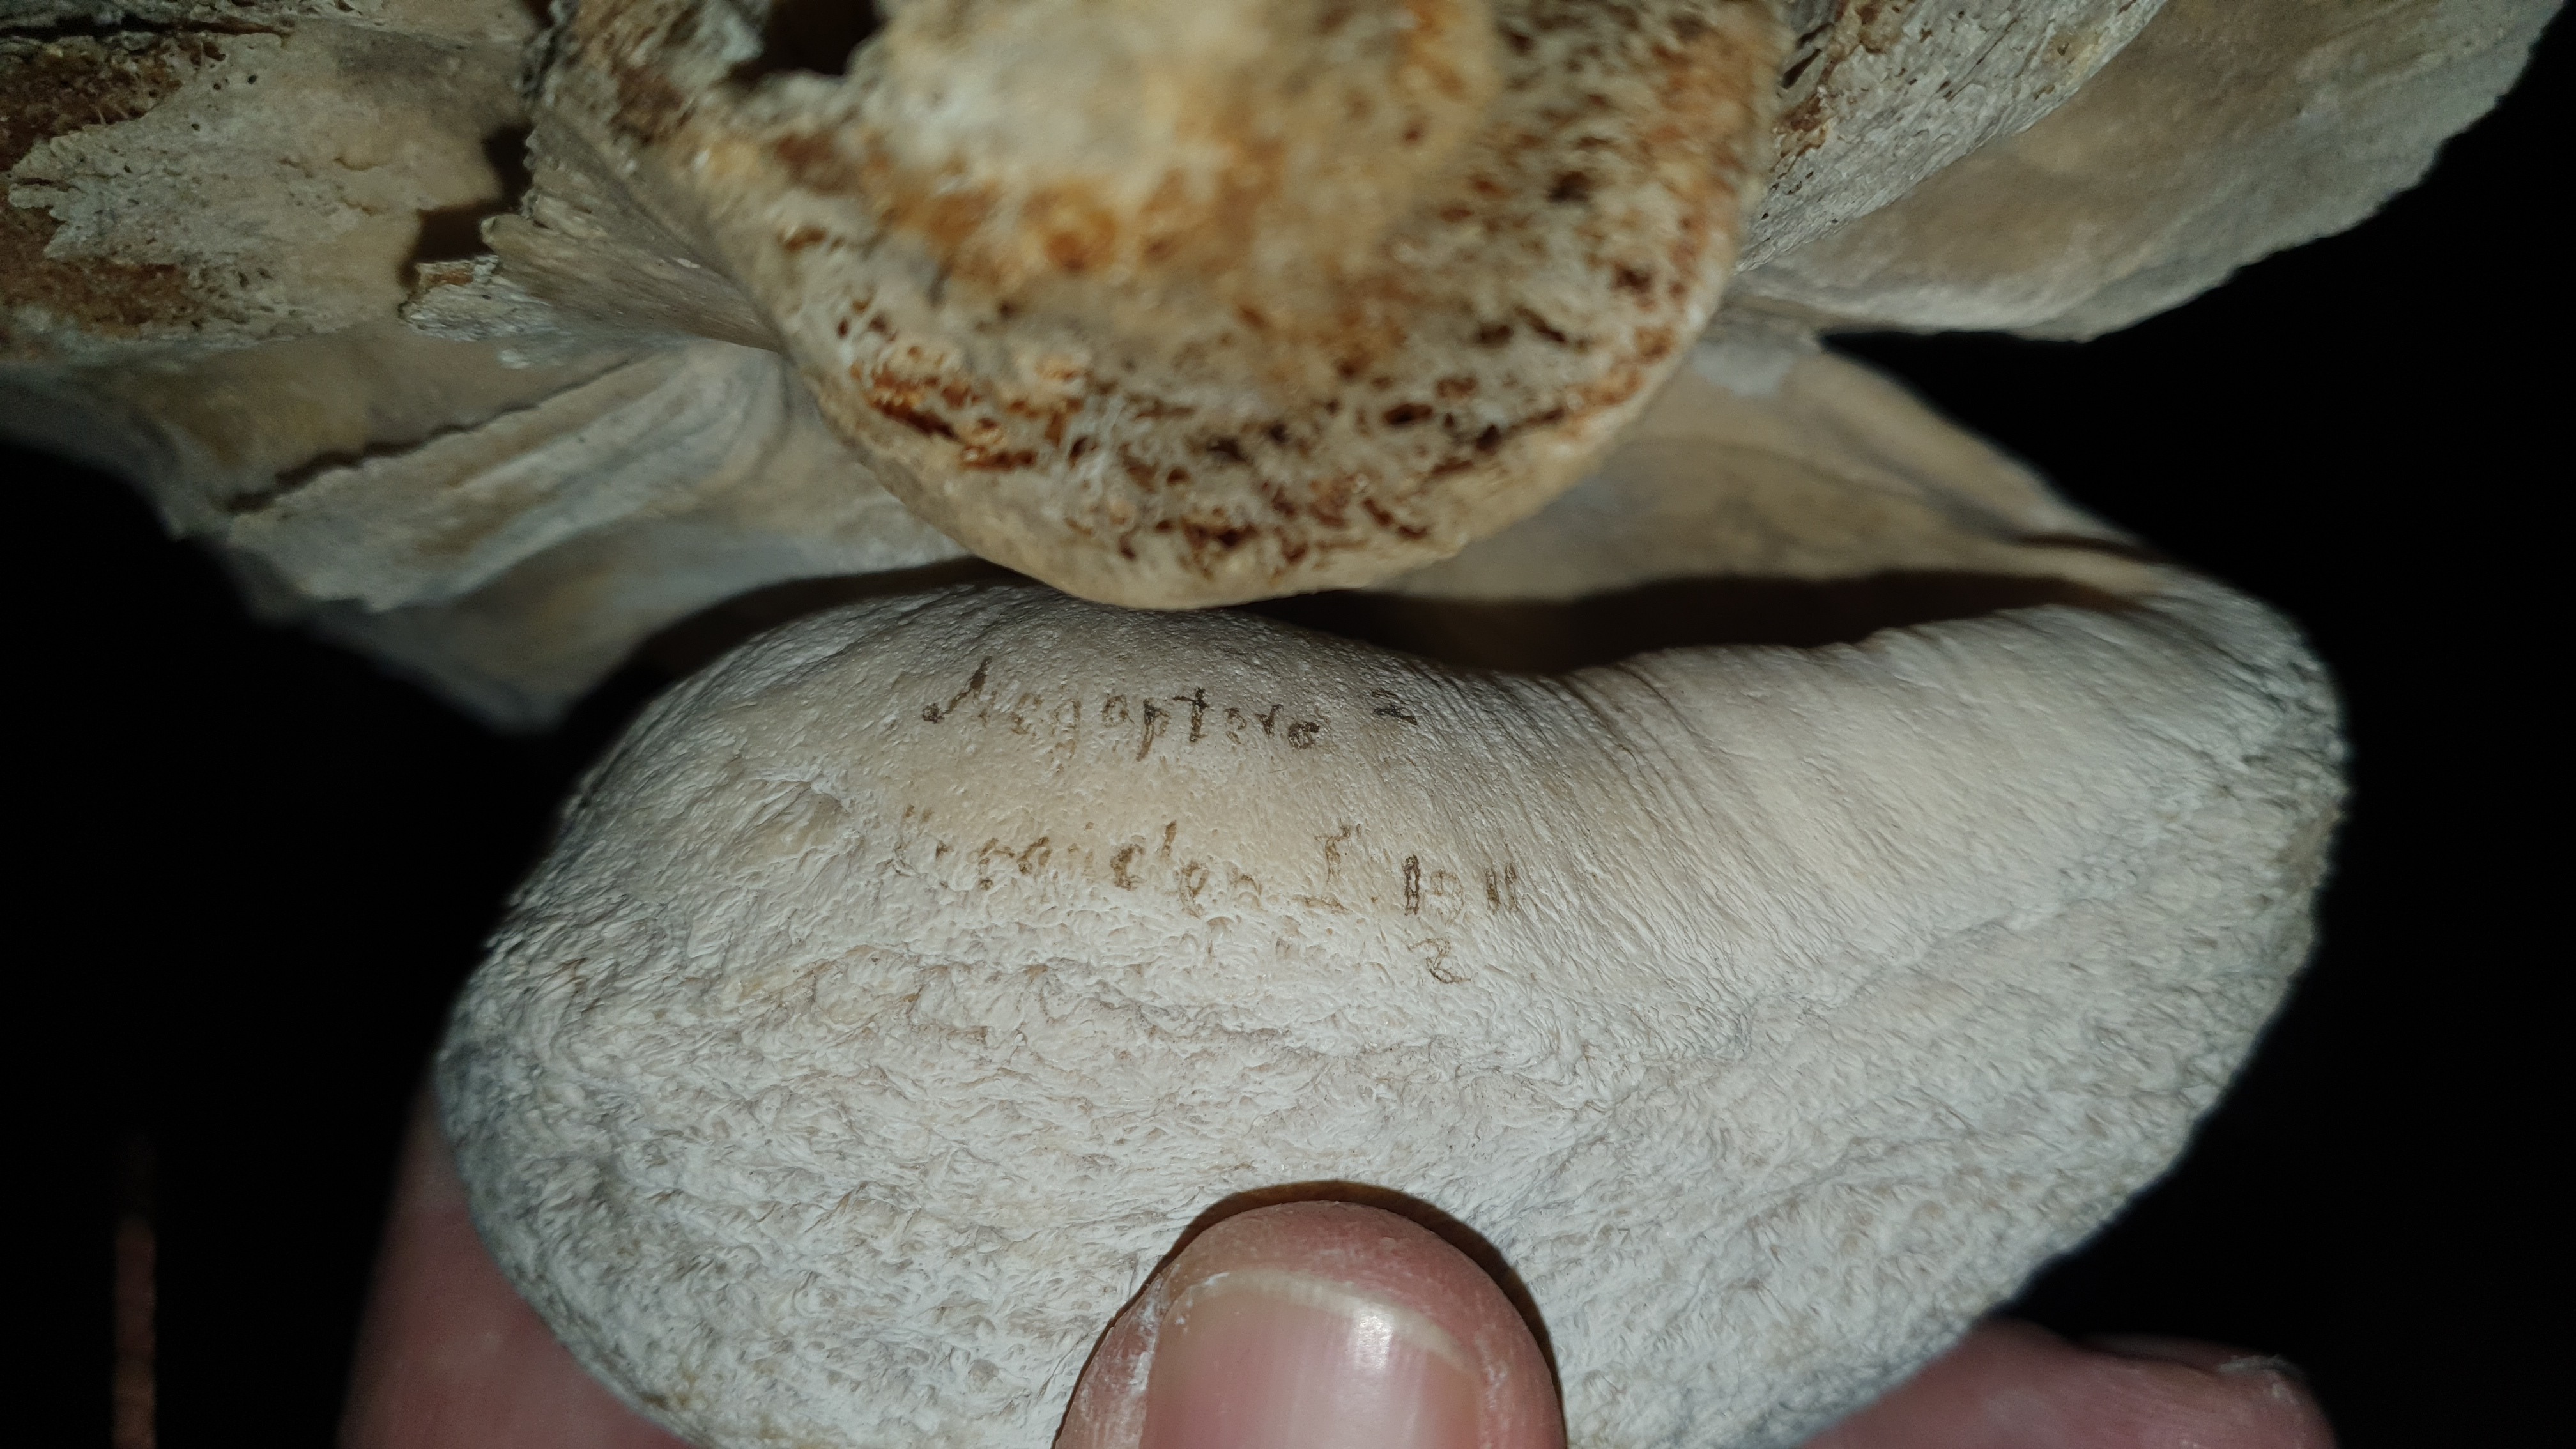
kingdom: Animalia
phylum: Chordata
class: Mammalia
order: Cetacea
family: Balaenopteridae
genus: Megaptera
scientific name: Megaptera novaeangliae
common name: Humpback whale
